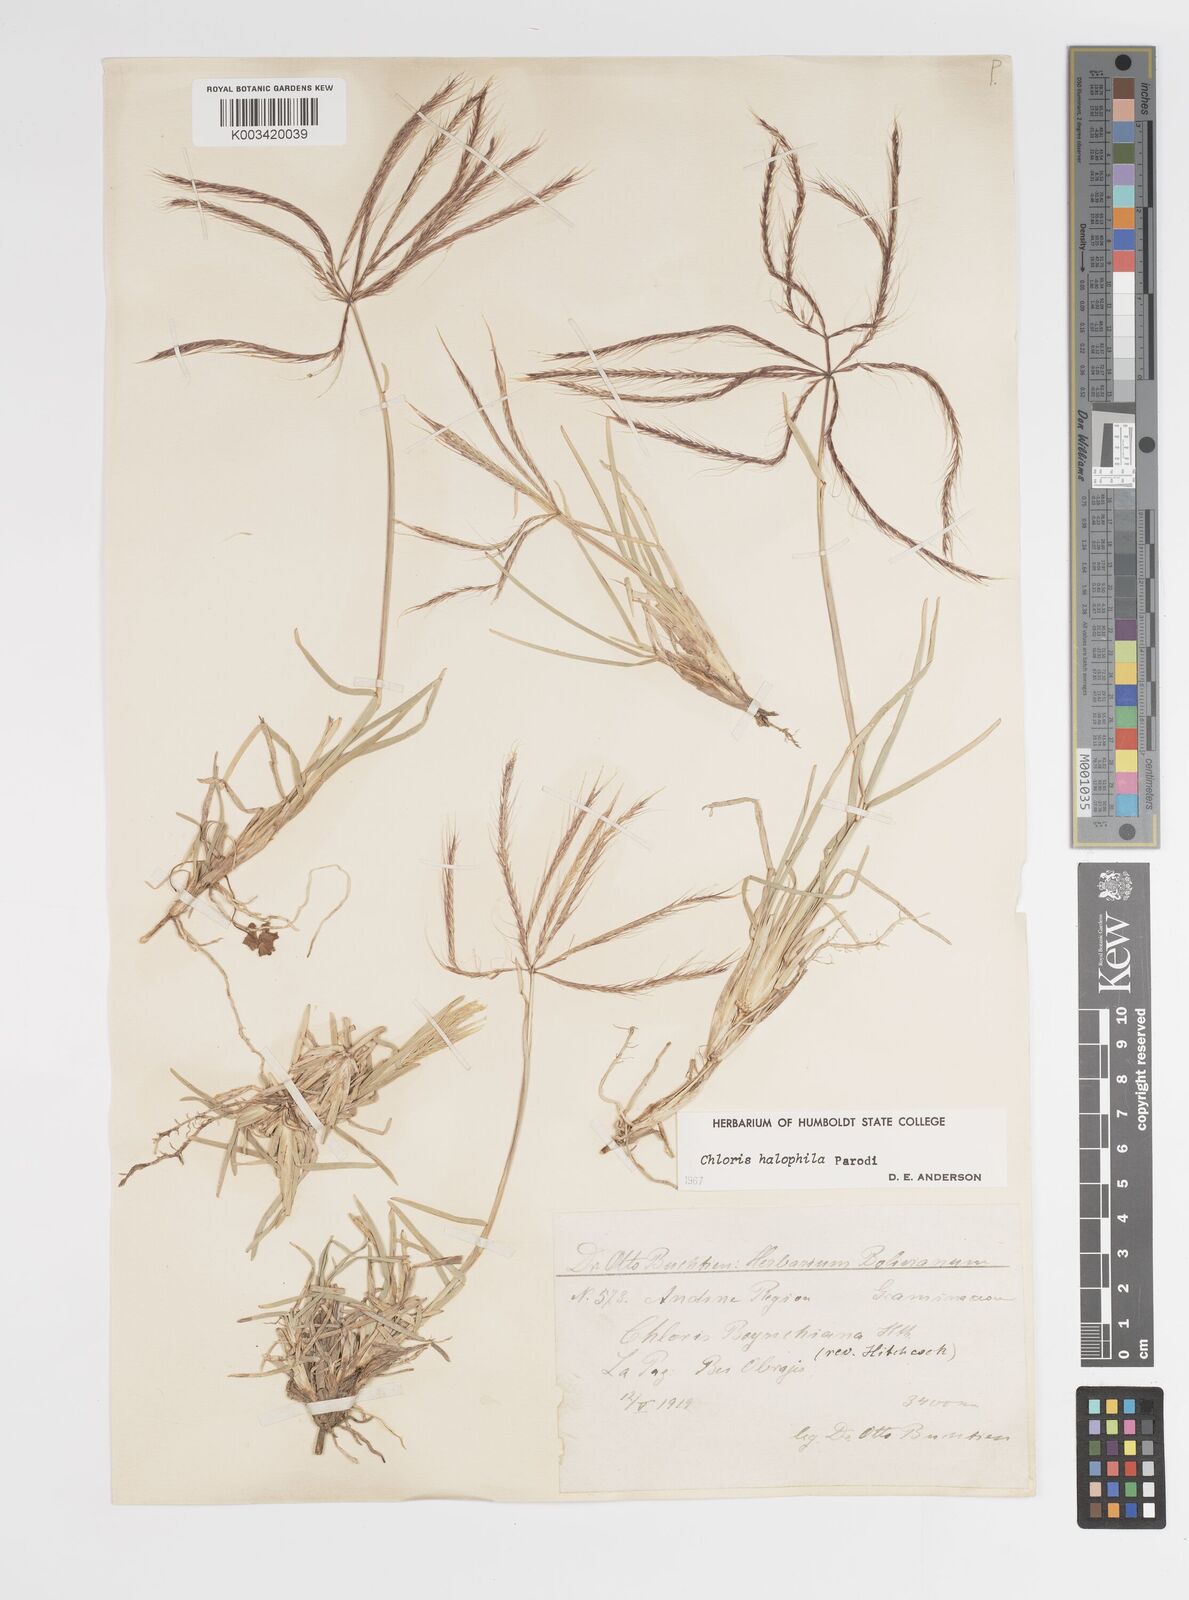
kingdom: Plantae
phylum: Tracheophyta
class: Liliopsida
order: Poales
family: Poaceae
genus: Chloris
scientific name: Chloris halophila
